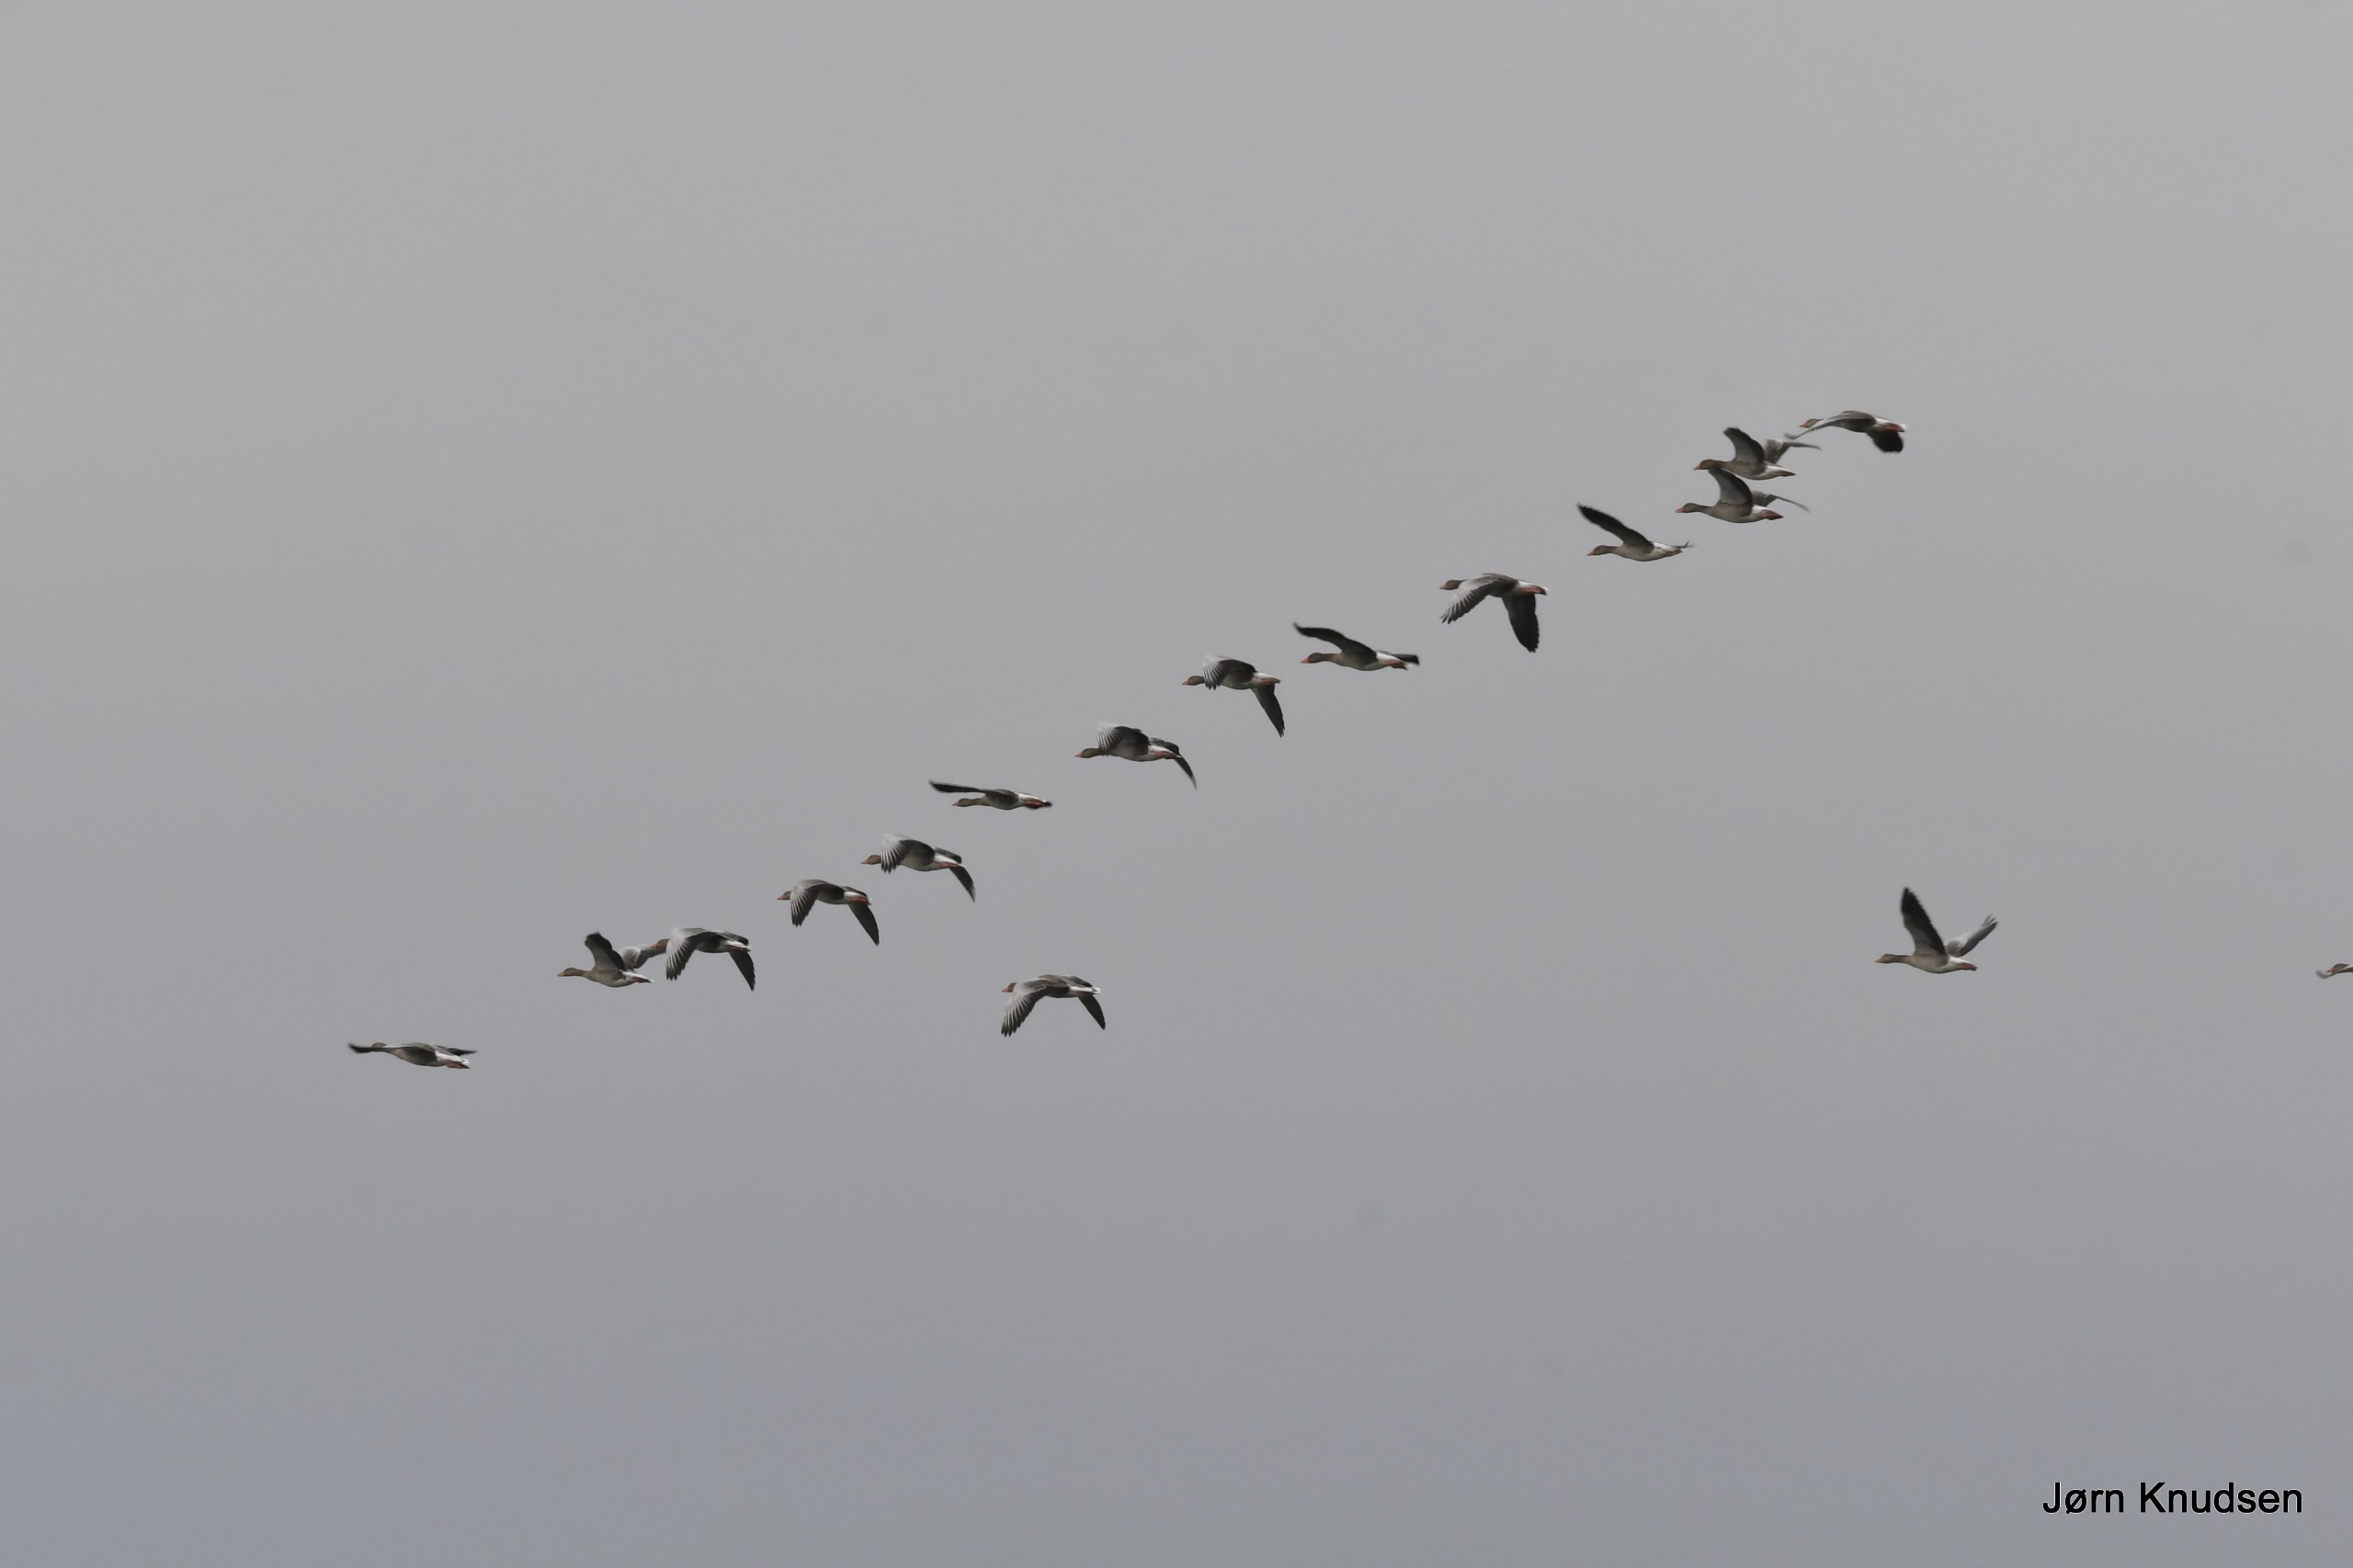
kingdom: Animalia
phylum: Chordata
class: Aves
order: Anseriformes
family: Anatidae
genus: Anser
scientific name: Anser anser
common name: Grågås
